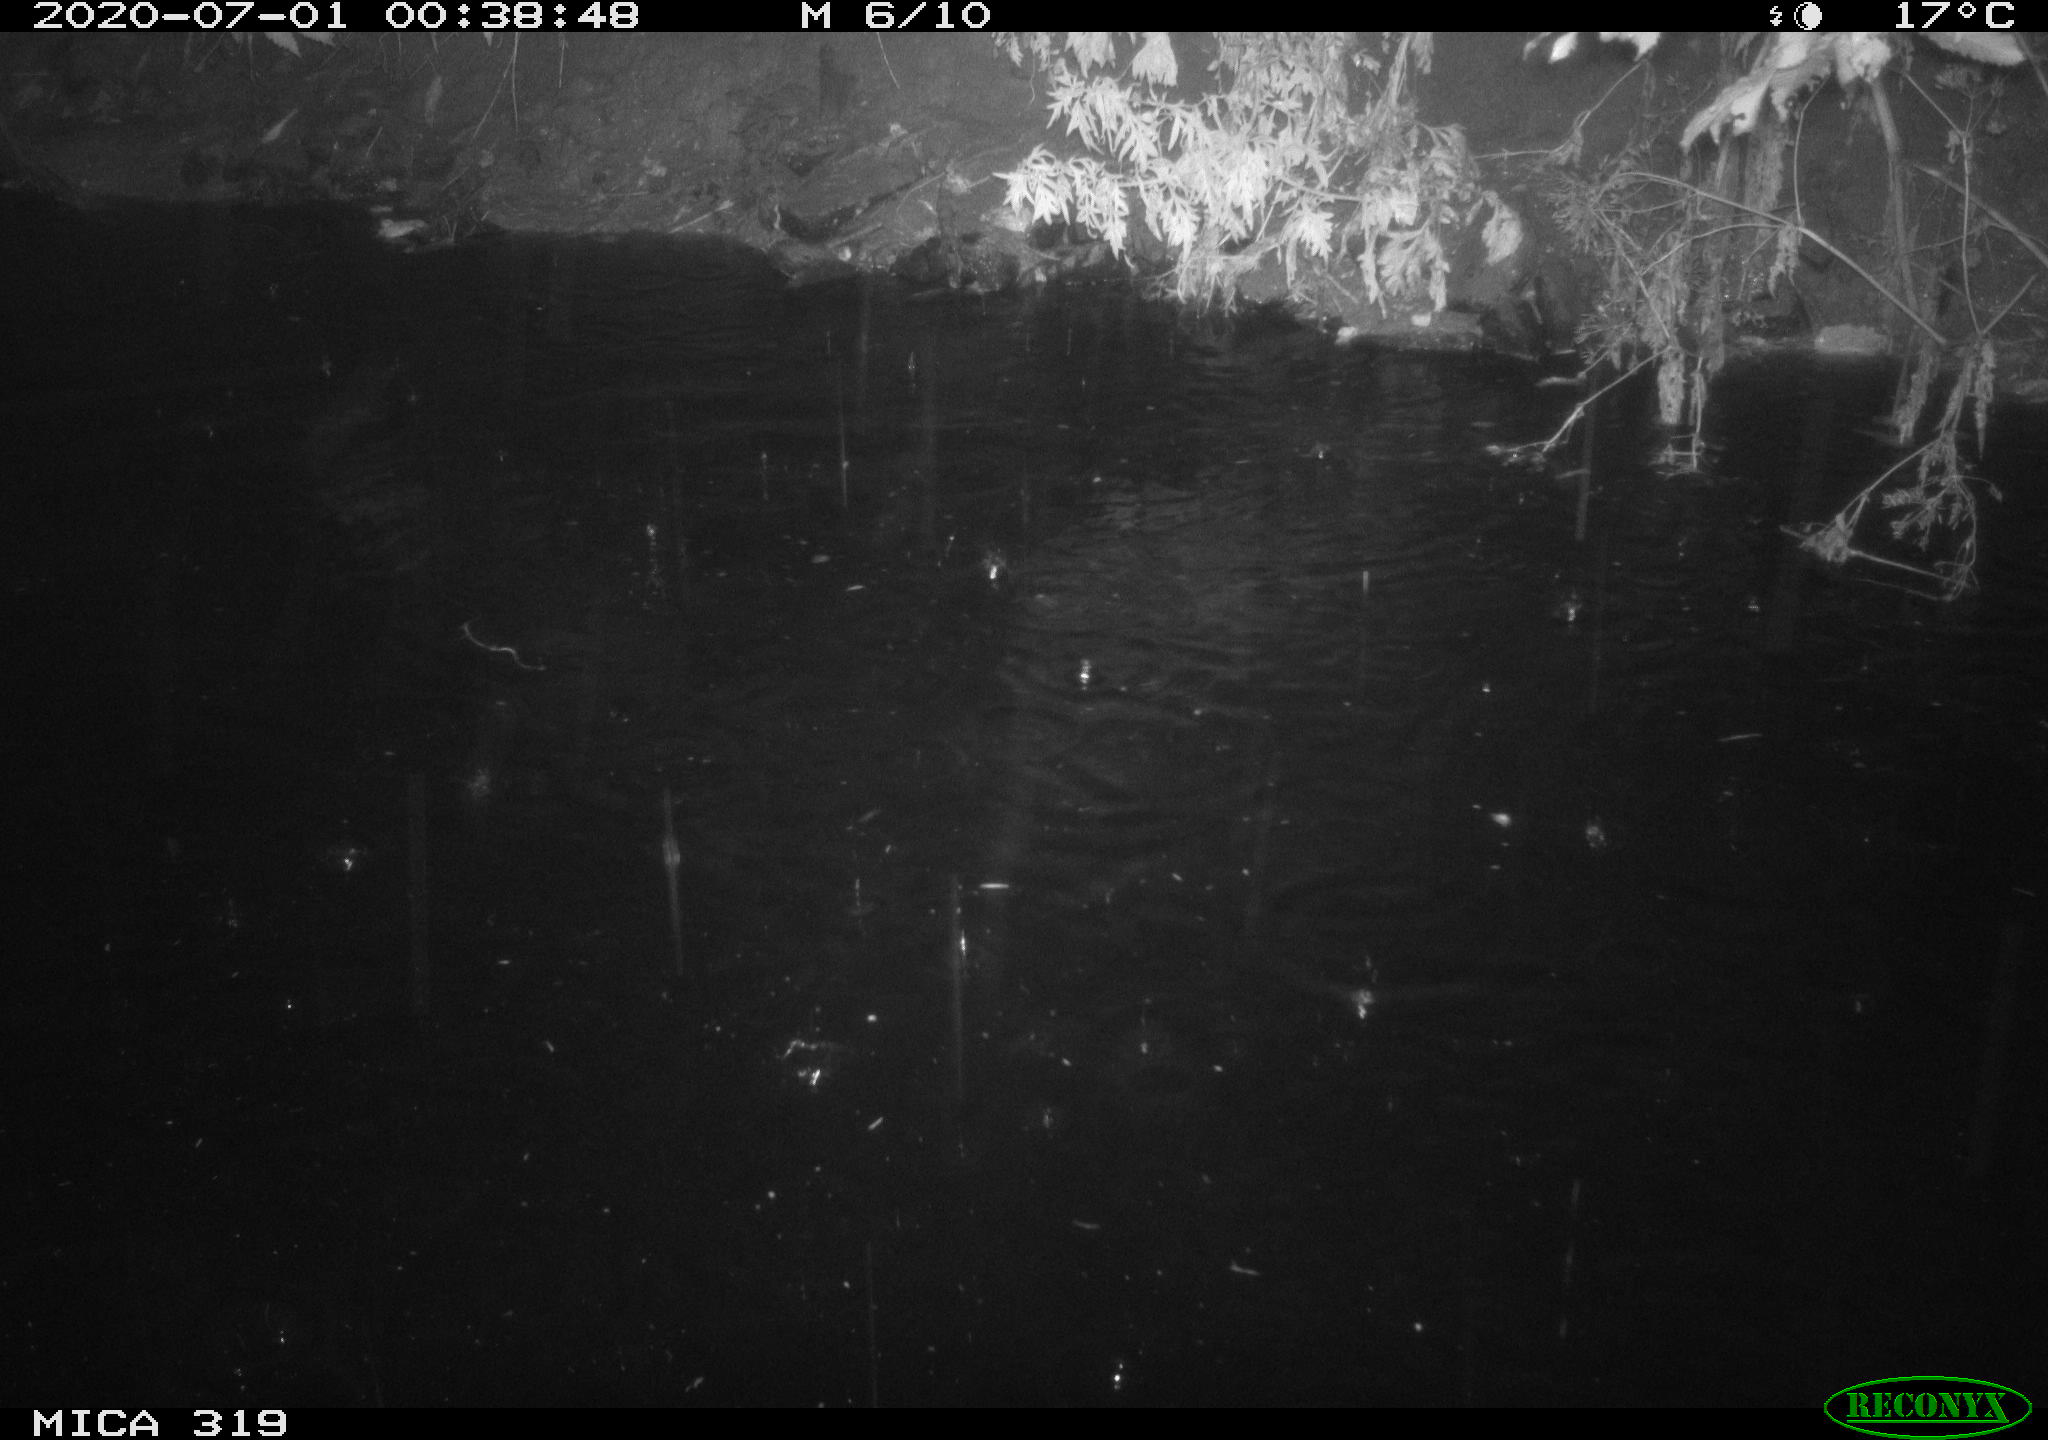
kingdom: Animalia
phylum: Chordata
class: Aves
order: Anseriformes
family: Anatidae
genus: Anas
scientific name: Anas platyrhynchos
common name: Mallard
